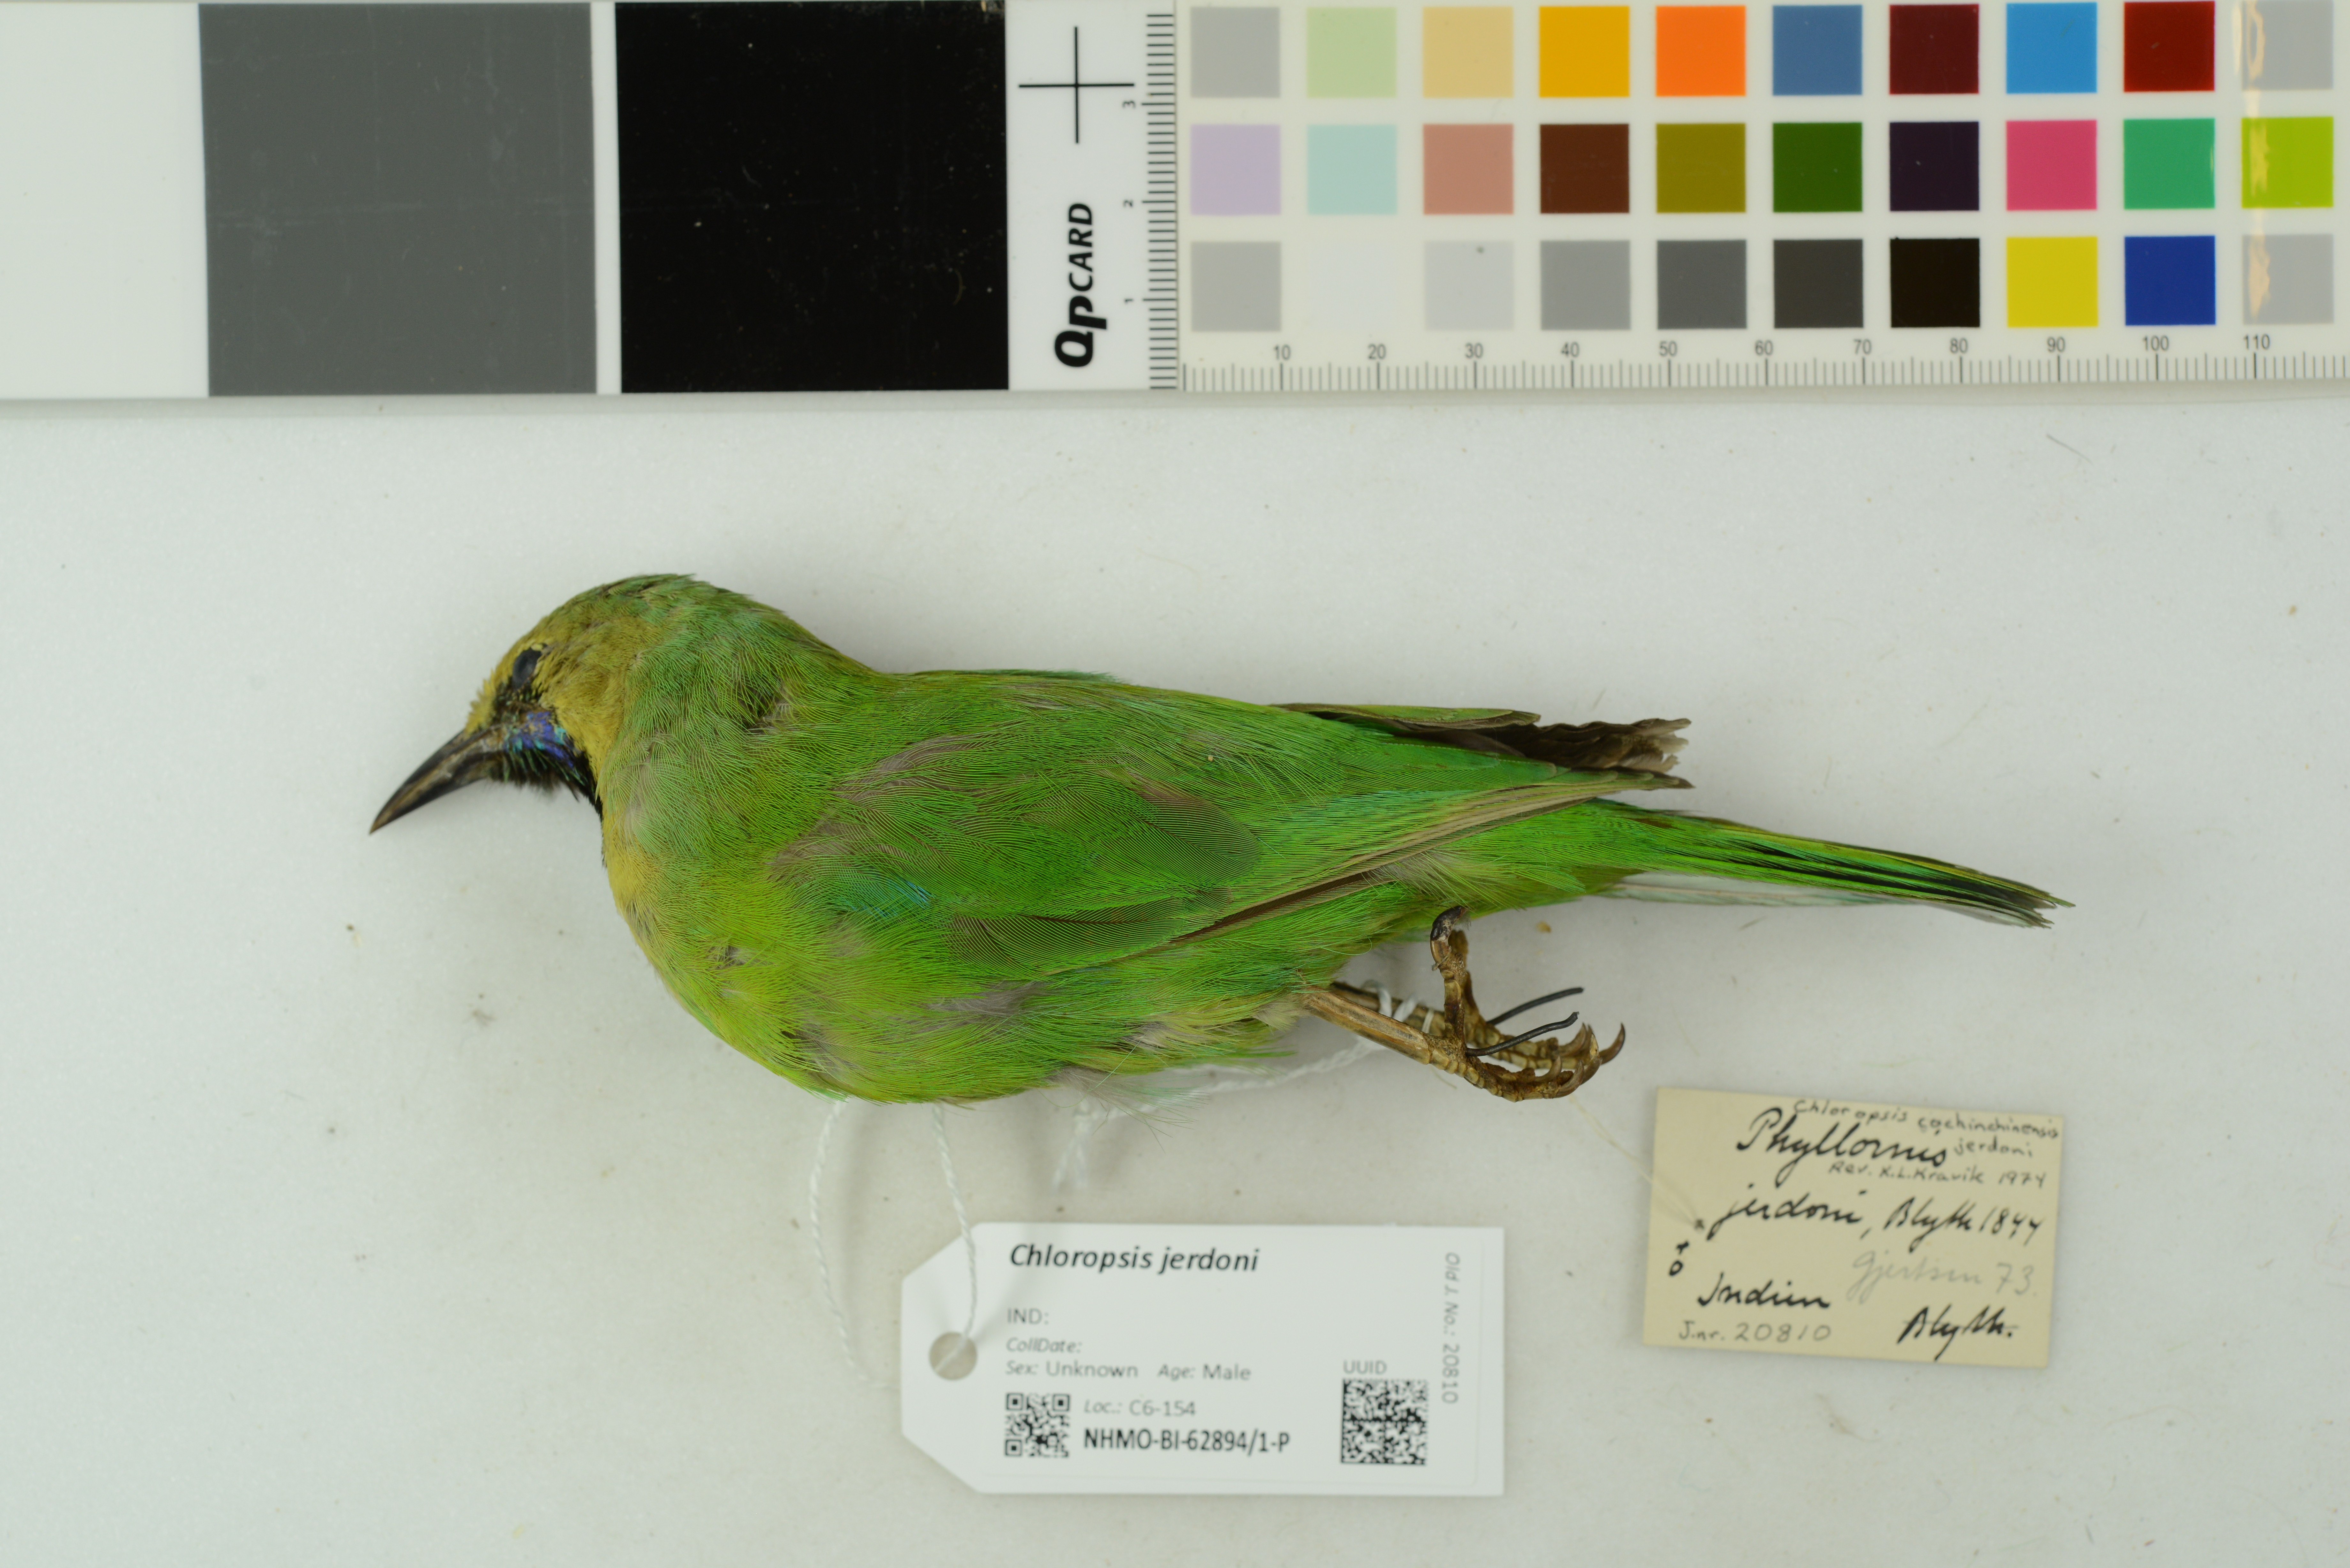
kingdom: Animalia
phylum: Chordata
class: Aves
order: Passeriformes
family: Chloropseidae
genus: Chloropsis
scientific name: Chloropsis jerdoni
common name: Jerdon's leafbird
